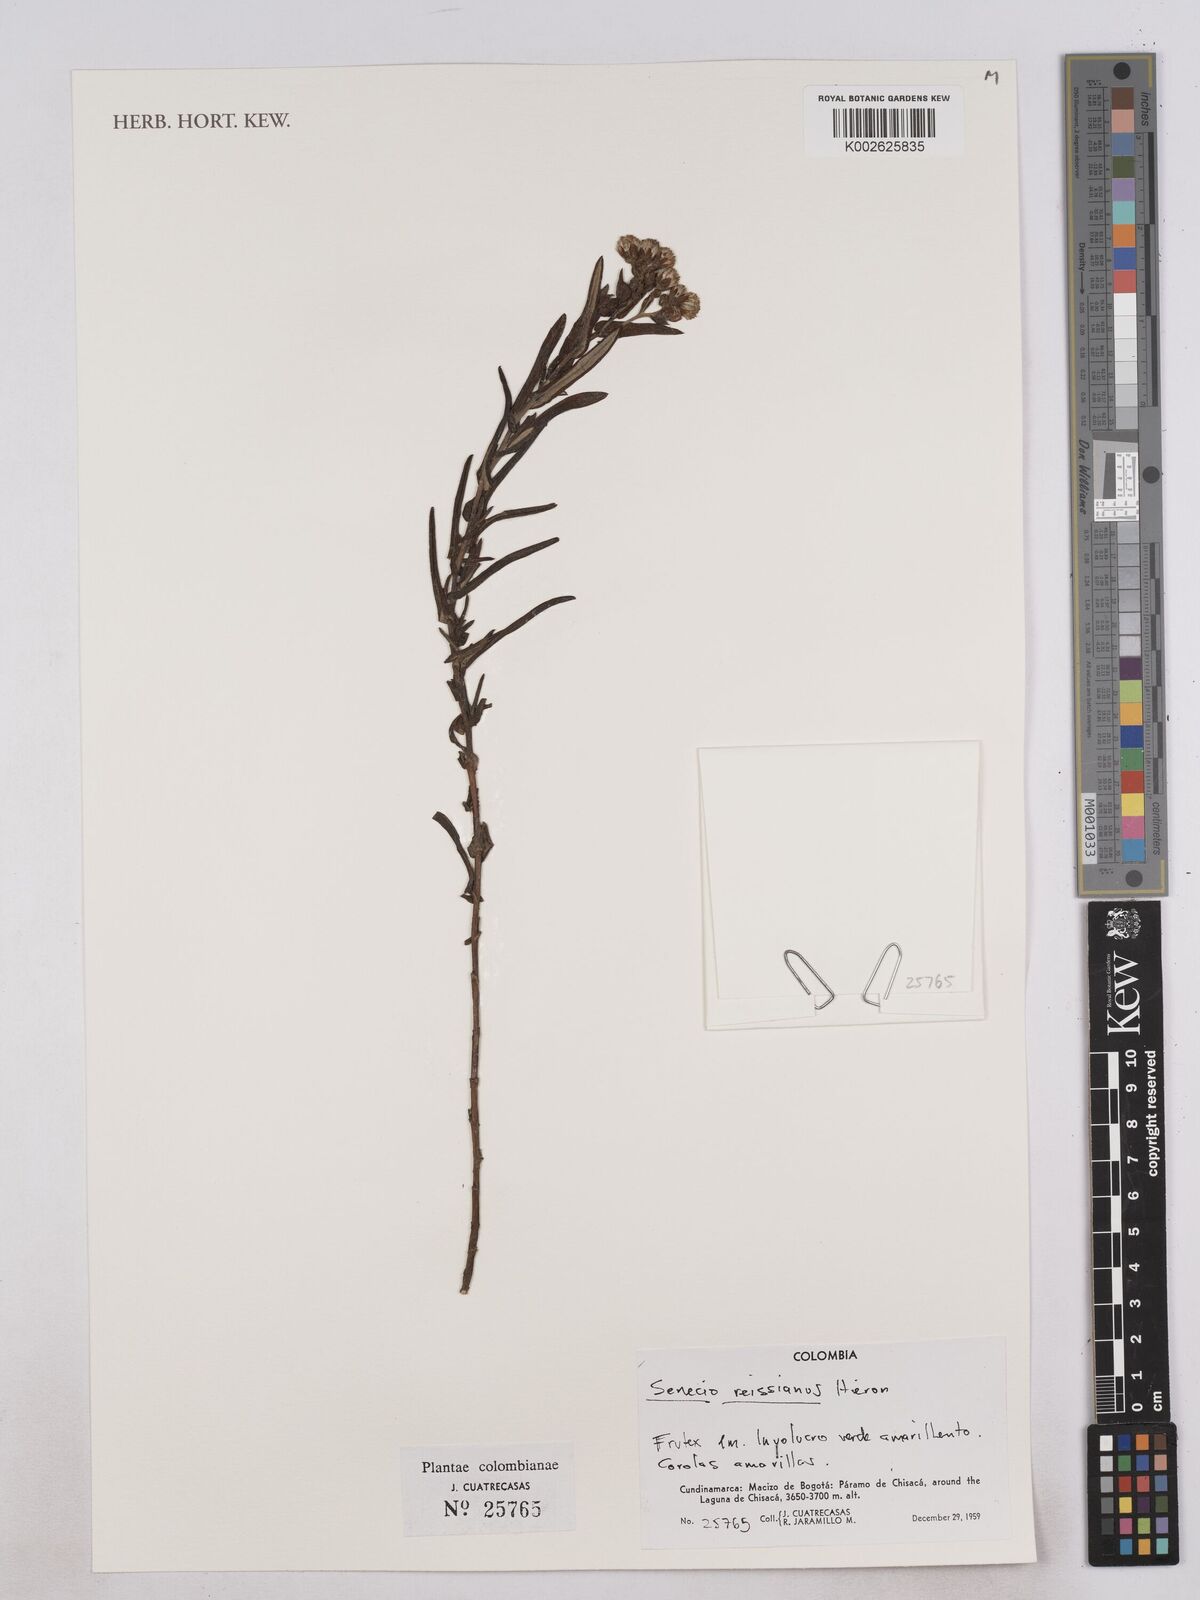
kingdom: Plantae
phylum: Tracheophyta
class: Magnoliopsida
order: Asterales
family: Asteraceae
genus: Monticalia
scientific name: Monticalia
